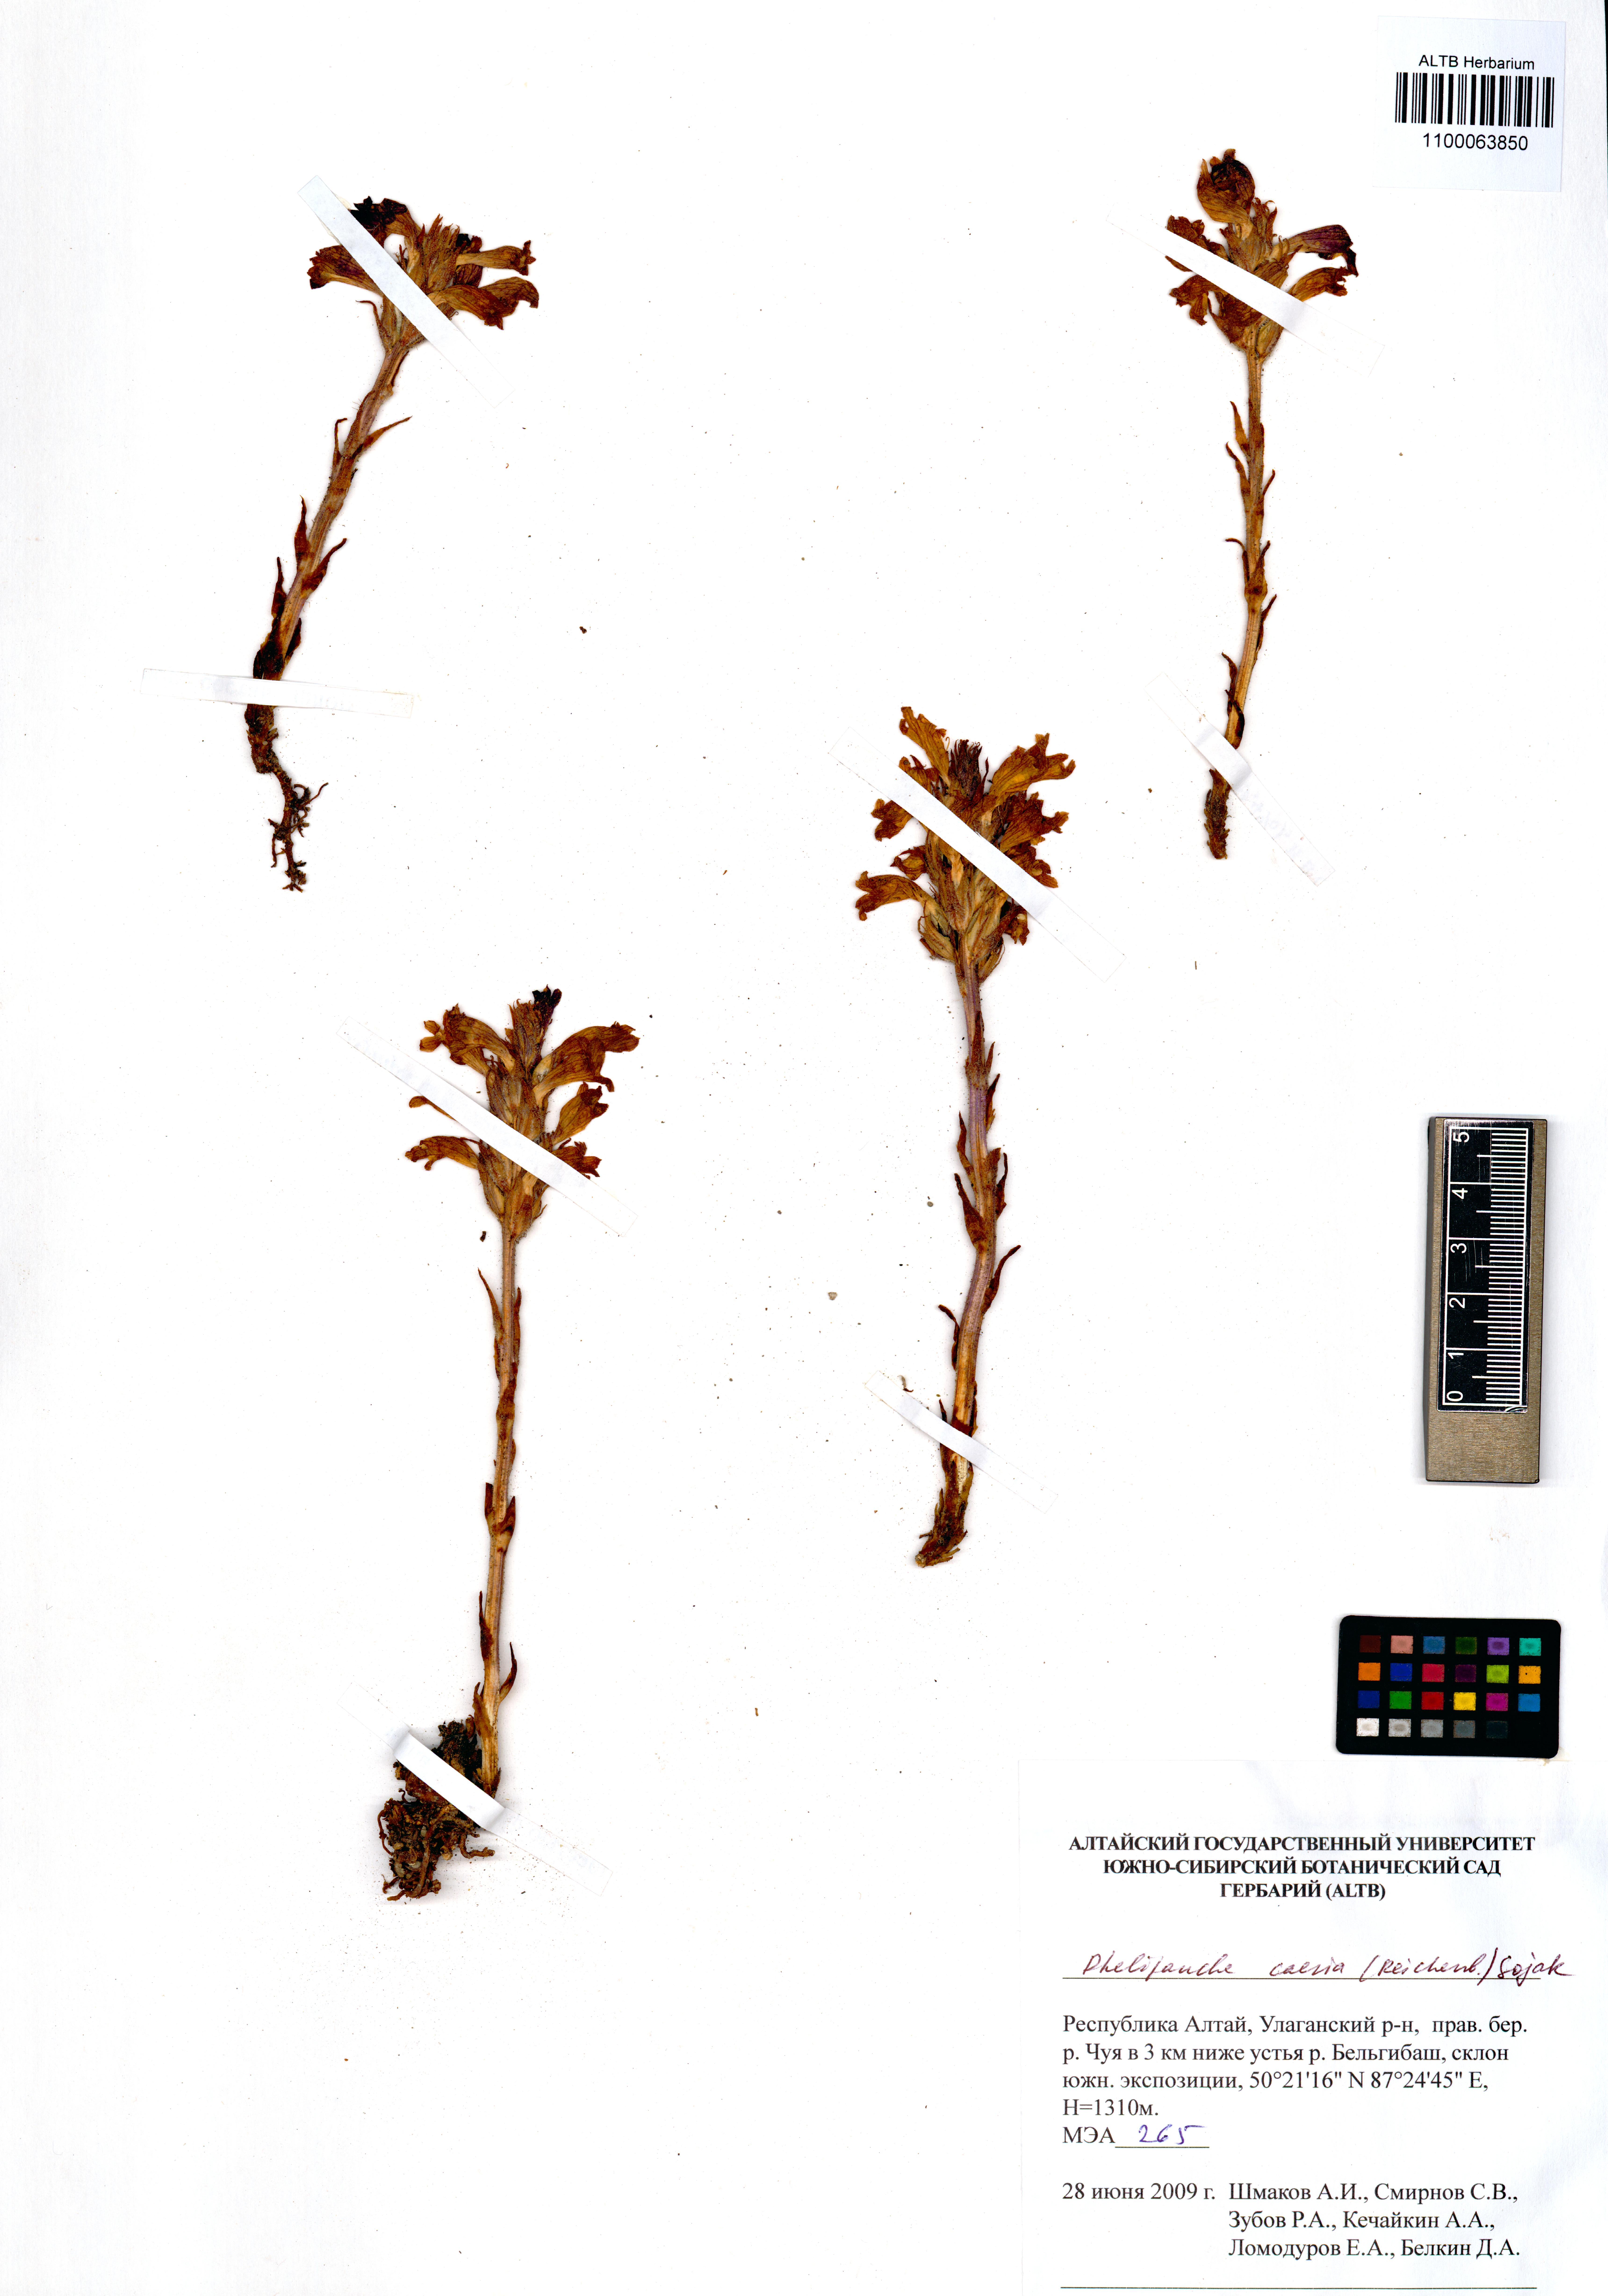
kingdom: Plantae
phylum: Tracheophyta
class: Magnoliopsida
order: Lamiales
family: Orobanchaceae
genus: Phelipanche
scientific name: Phelipanche caesia
